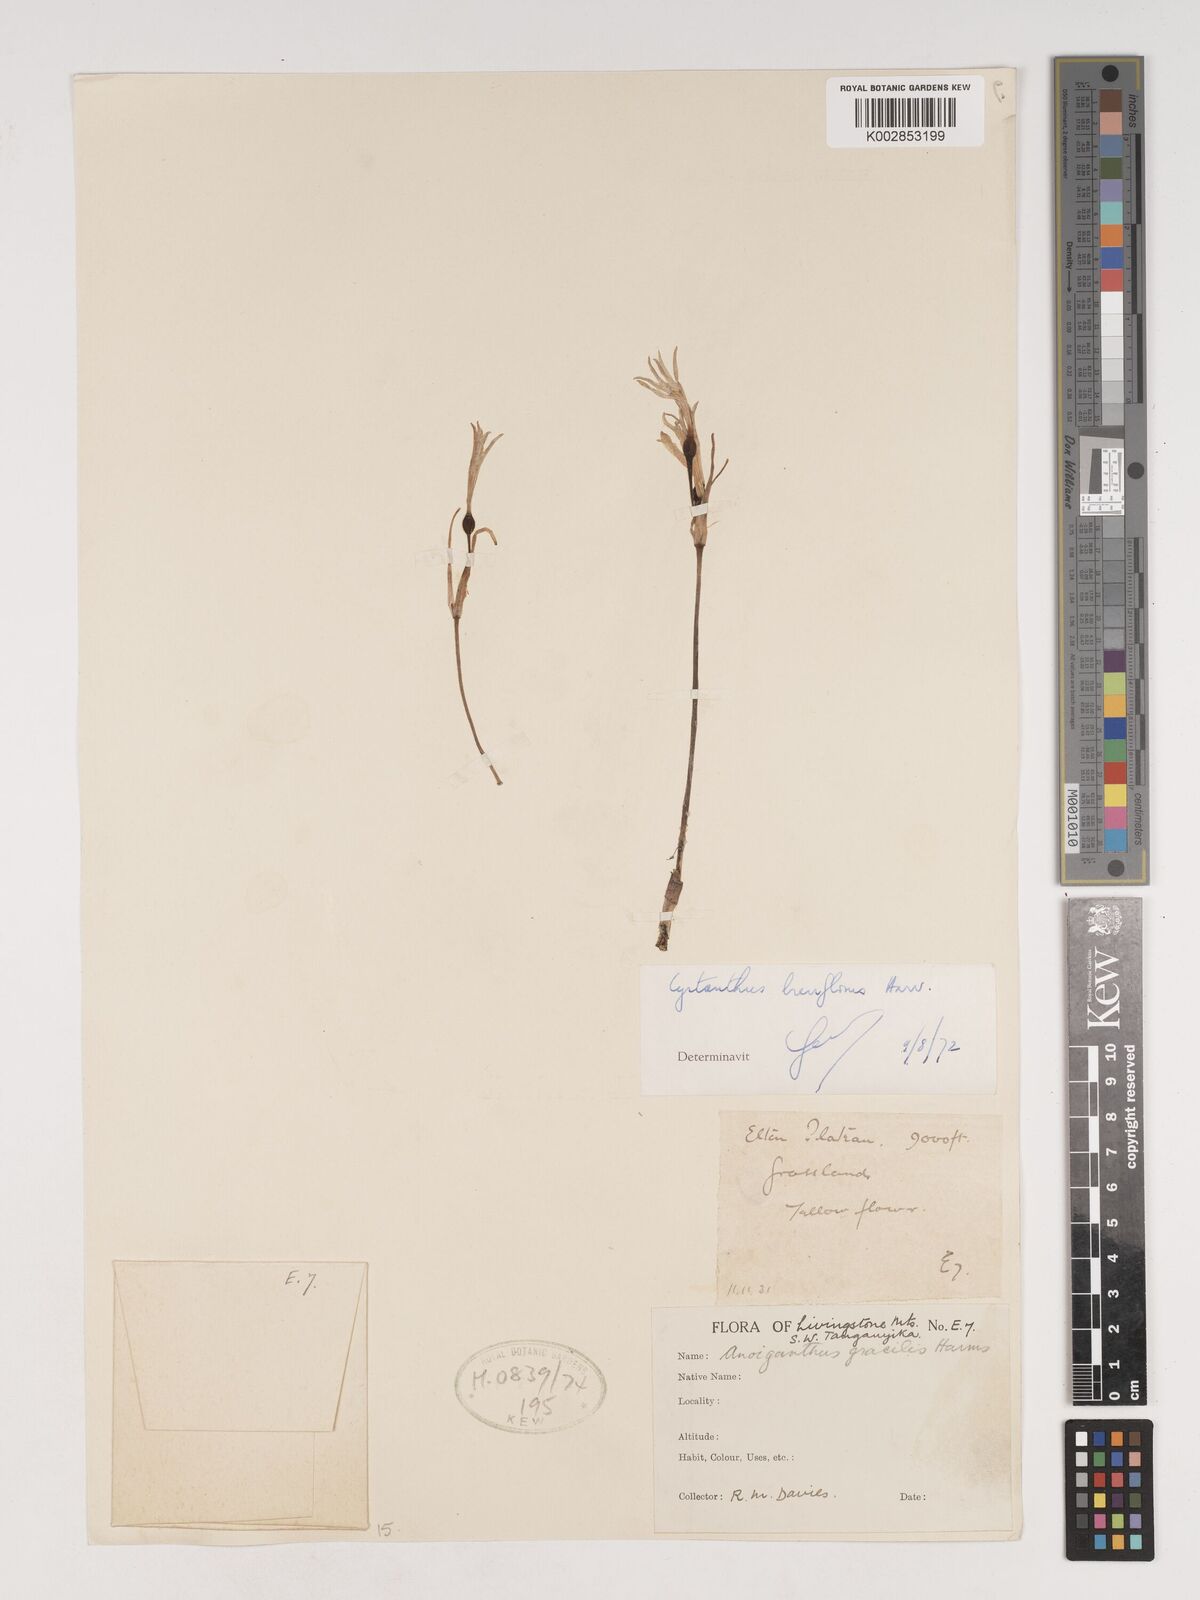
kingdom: Plantae
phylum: Tracheophyta
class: Liliopsida
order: Asparagales
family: Amaryllidaceae
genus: Cyrtanthus
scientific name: Cyrtanthus breviflorus
